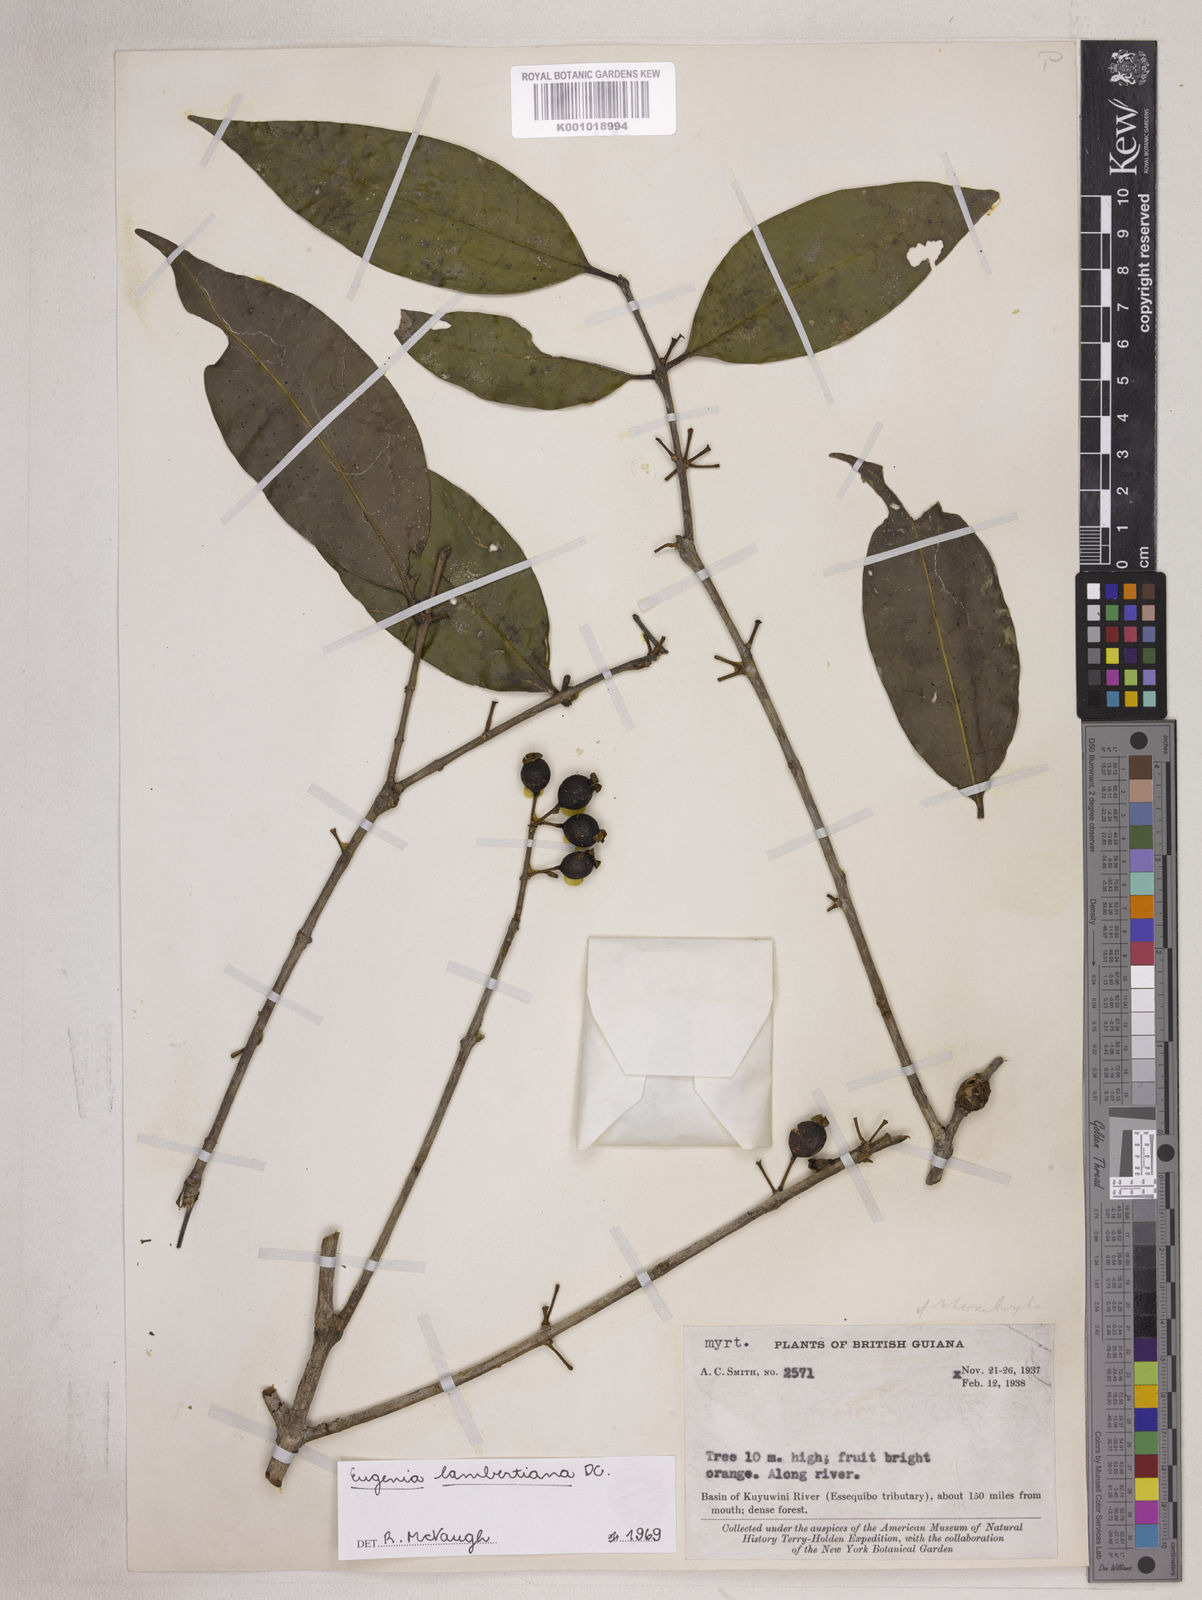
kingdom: Plantae
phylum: Tracheophyta
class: Magnoliopsida
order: Myrtales
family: Myrtaceae
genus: Eugenia
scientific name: Eugenia lambertiana
